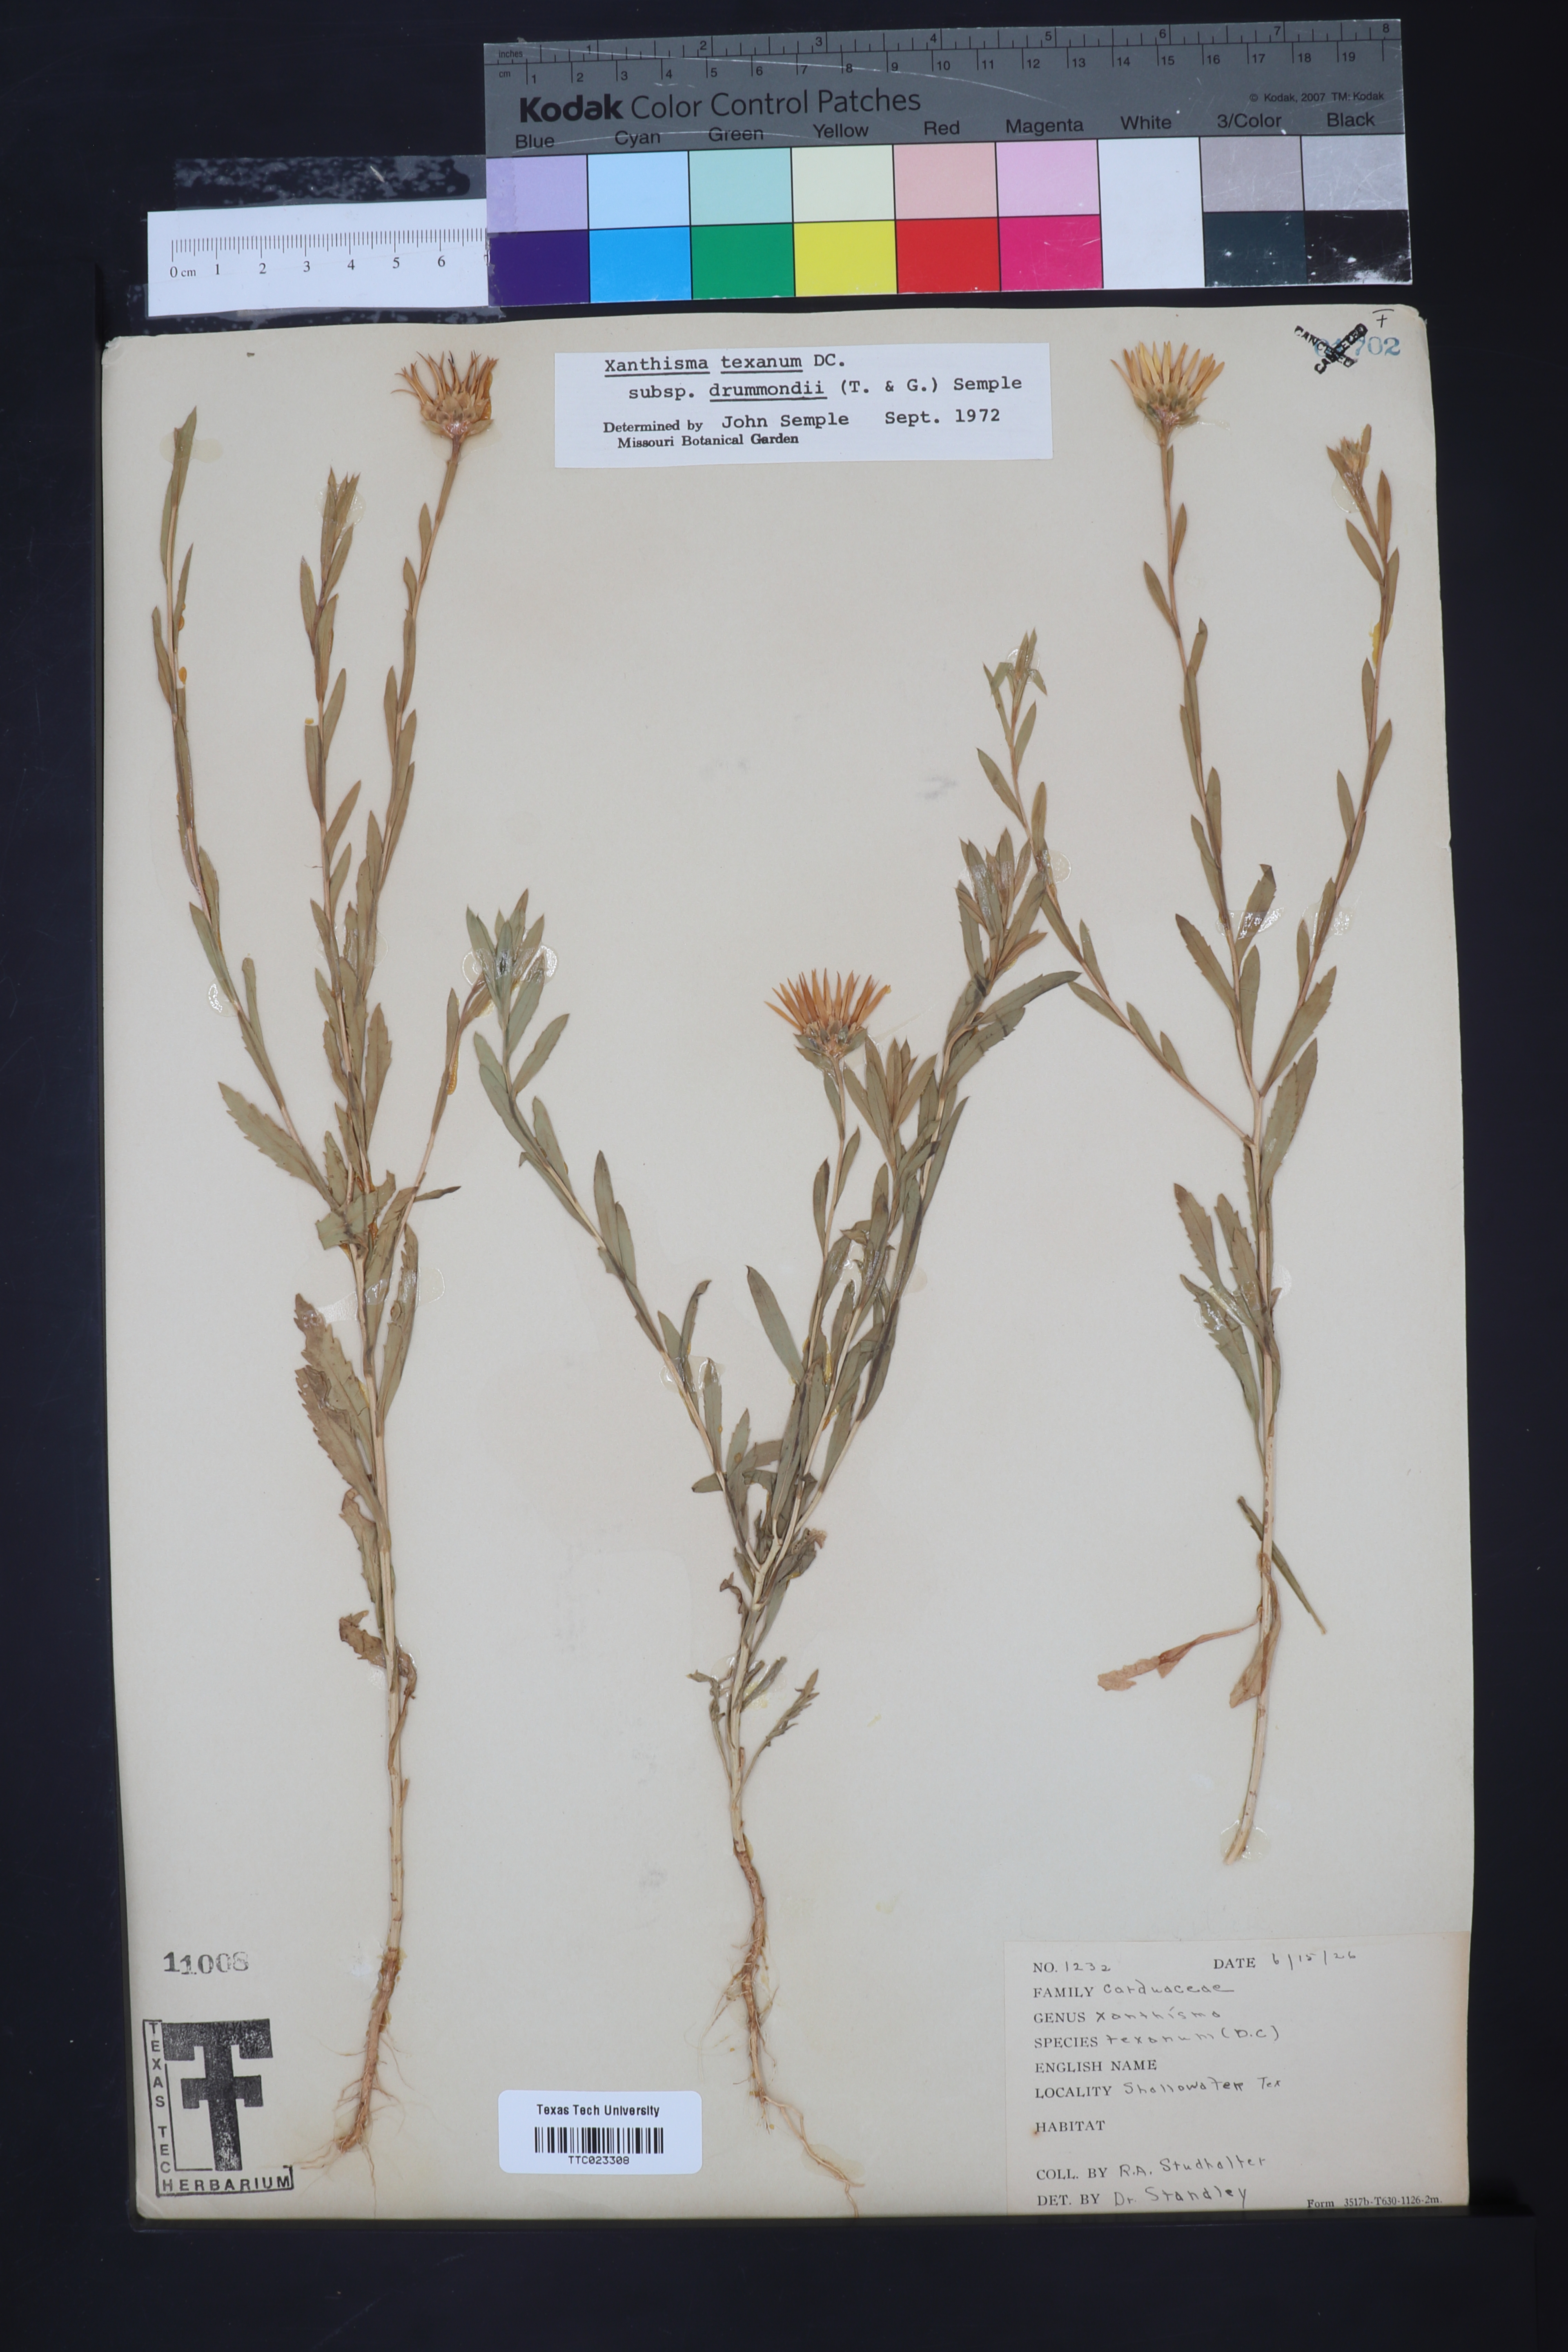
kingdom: Plantae
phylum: Tracheophyta
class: Magnoliopsida
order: Asterales
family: Asteraceae
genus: Xanthisma
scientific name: Xanthisma texanum
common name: Texas sleepy daisy
